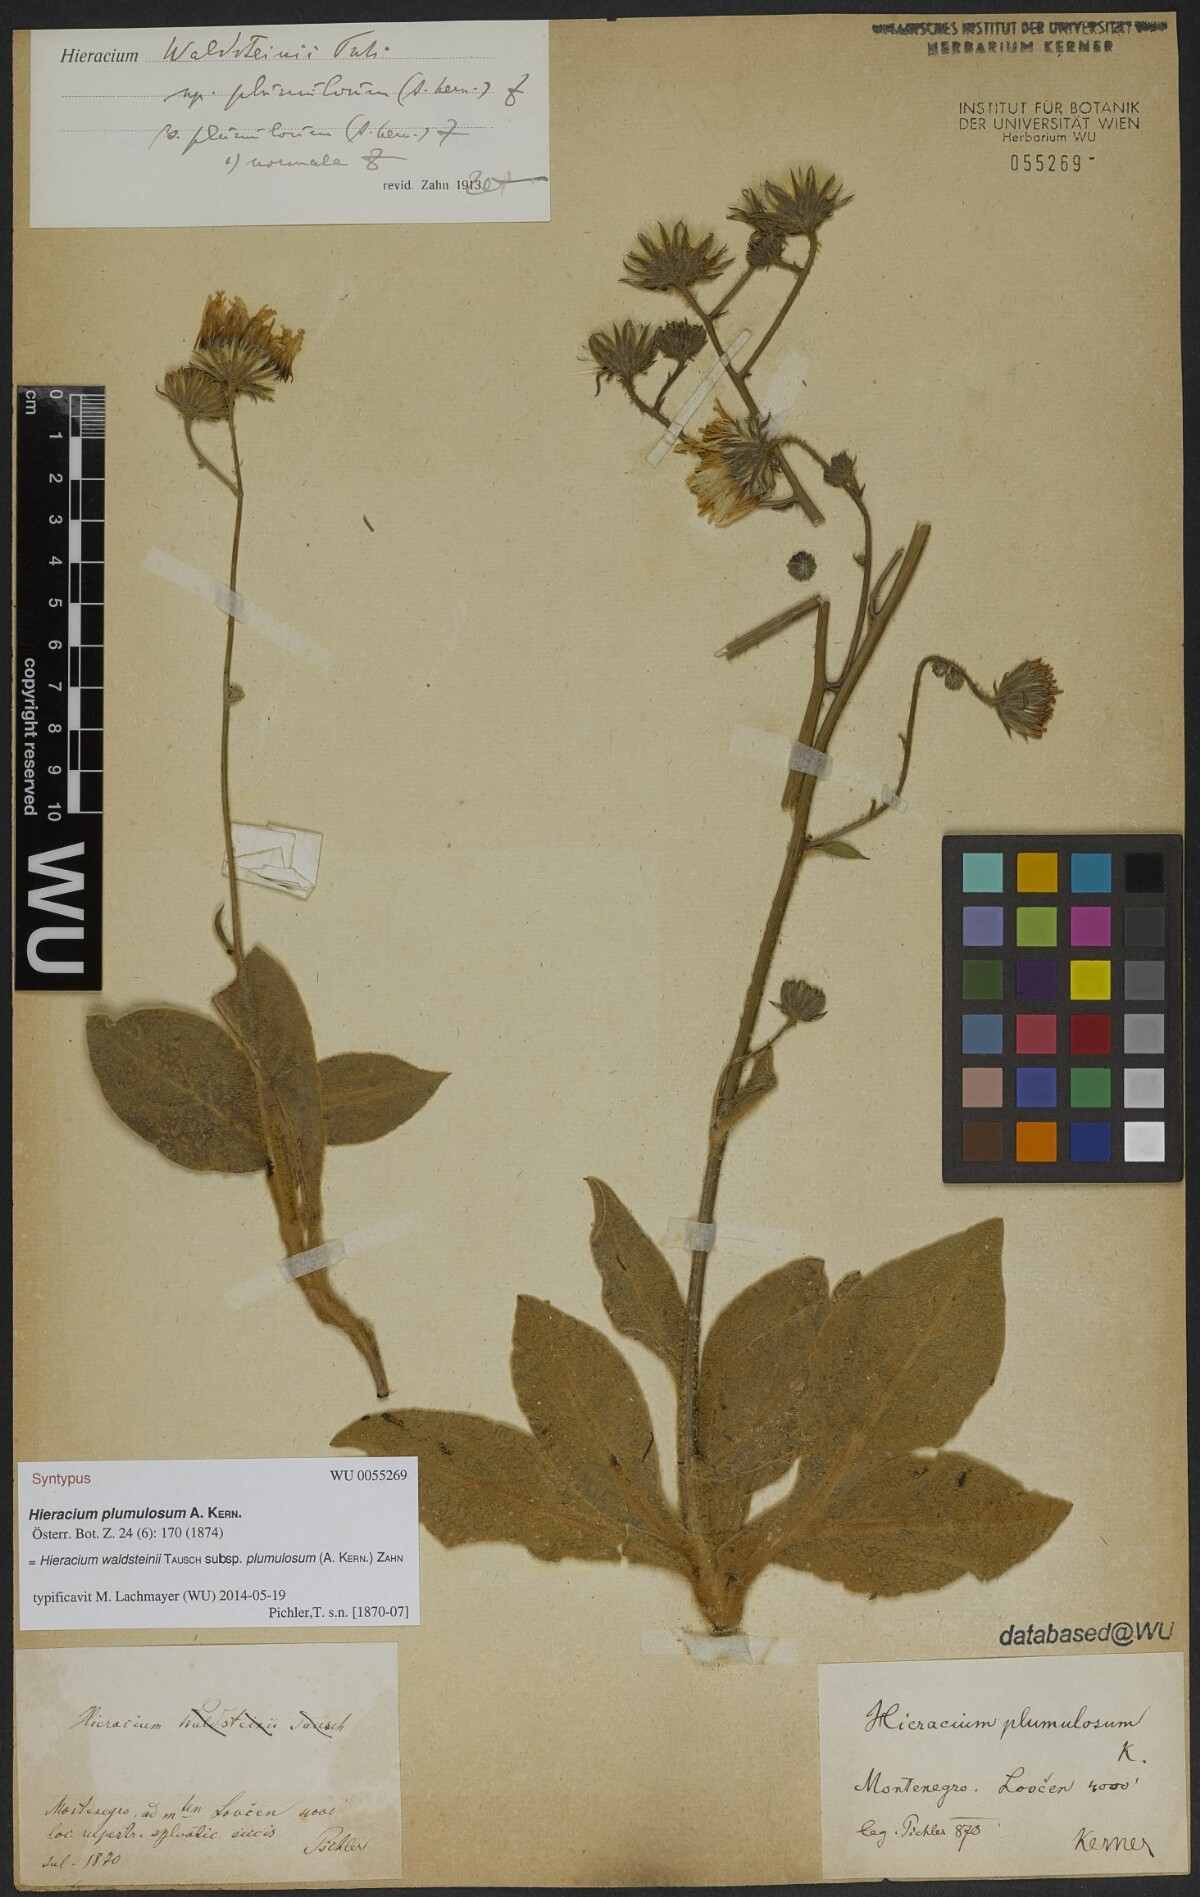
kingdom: Plantae
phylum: Tracheophyta
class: Magnoliopsida
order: Asterales
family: Asteraceae
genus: Hieracium
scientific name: Hieracium plumulosum
